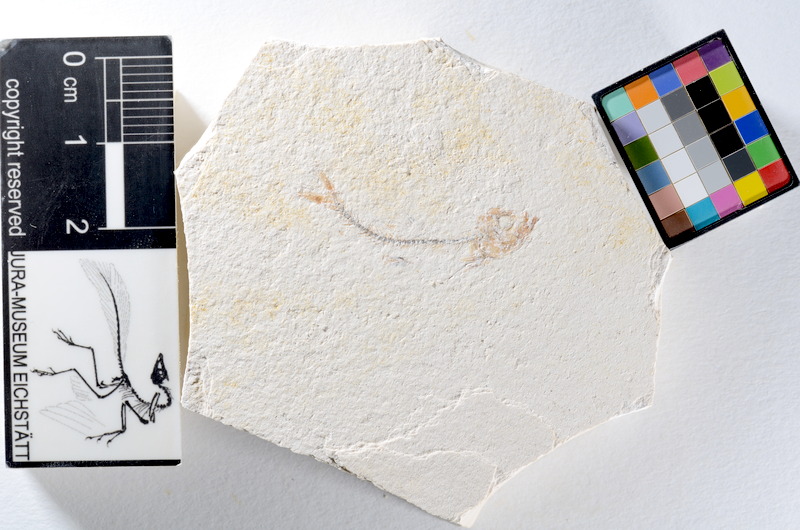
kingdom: Animalia
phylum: Chordata
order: Salmoniformes
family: Orthogonikleithridae
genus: Orthogonikleithrus
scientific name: Orthogonikleithrus hoelli
